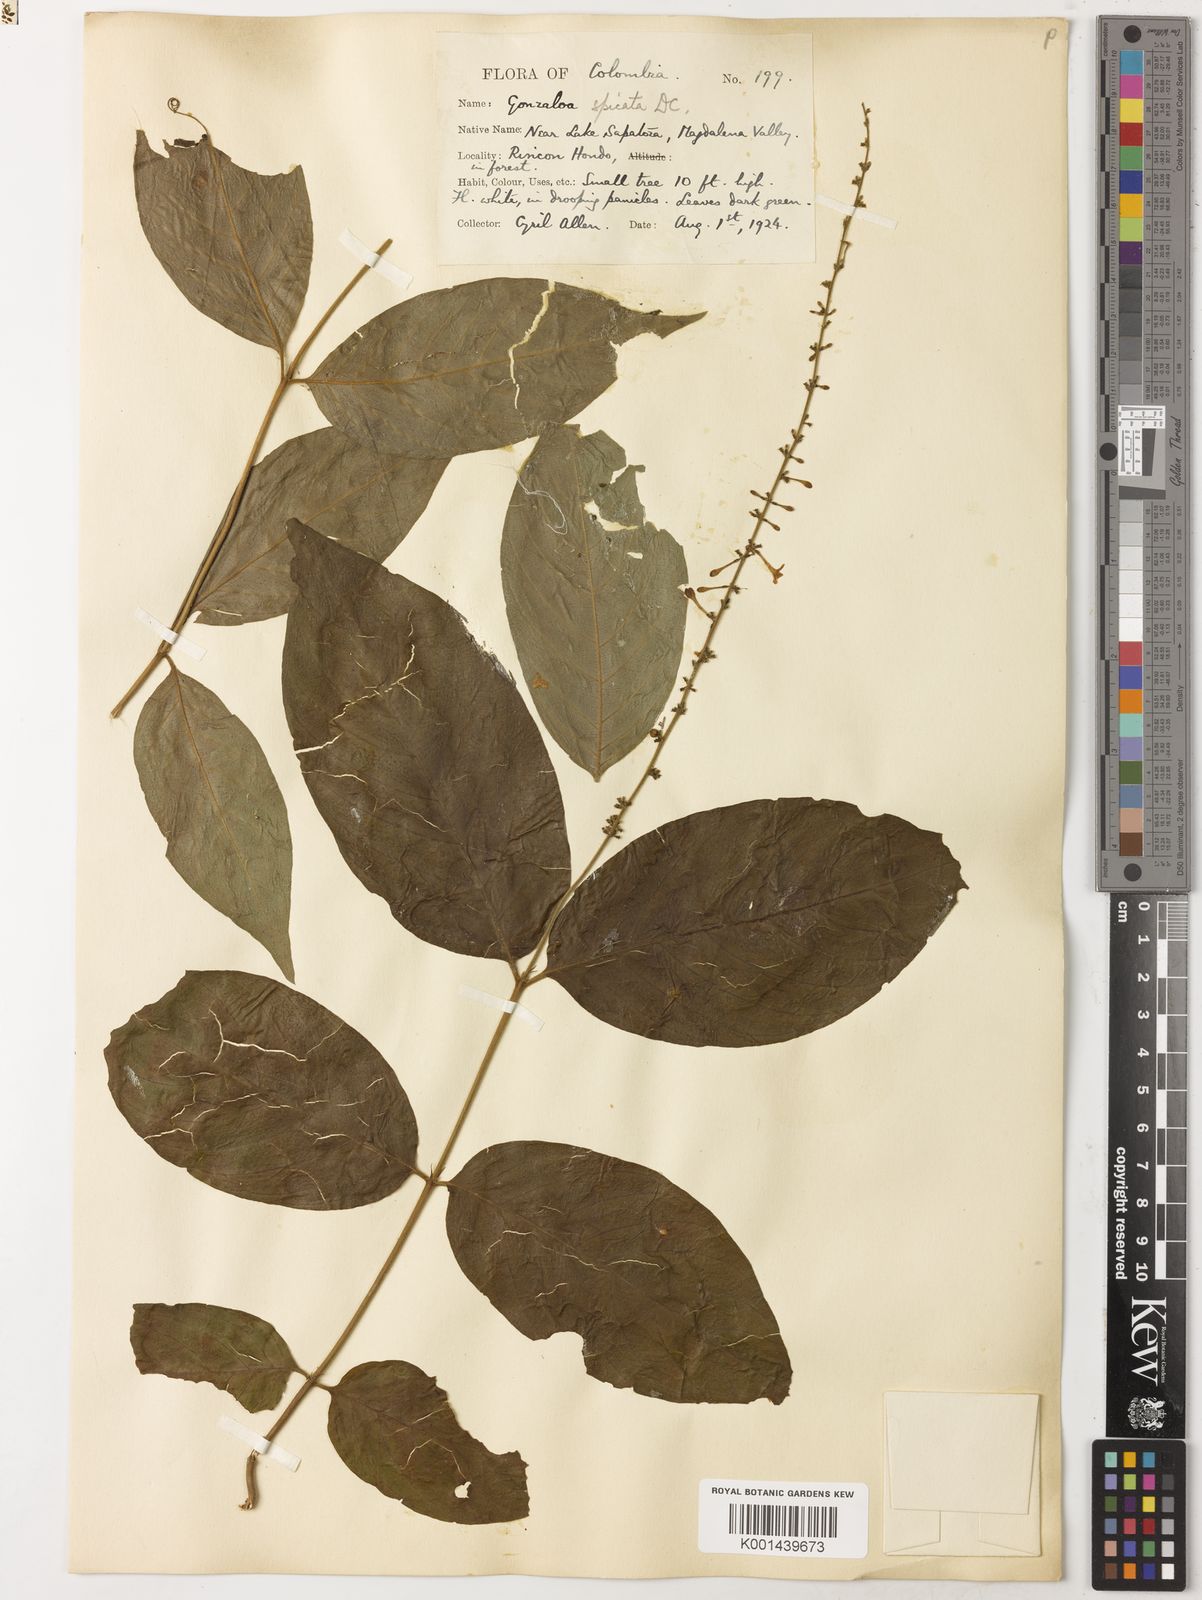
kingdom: Plantae
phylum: Tracheophyta
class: Magnoliopsida
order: Gentianales
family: Rubiaceae
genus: Gonzalagunia
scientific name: Gonzalagunia panamensis
